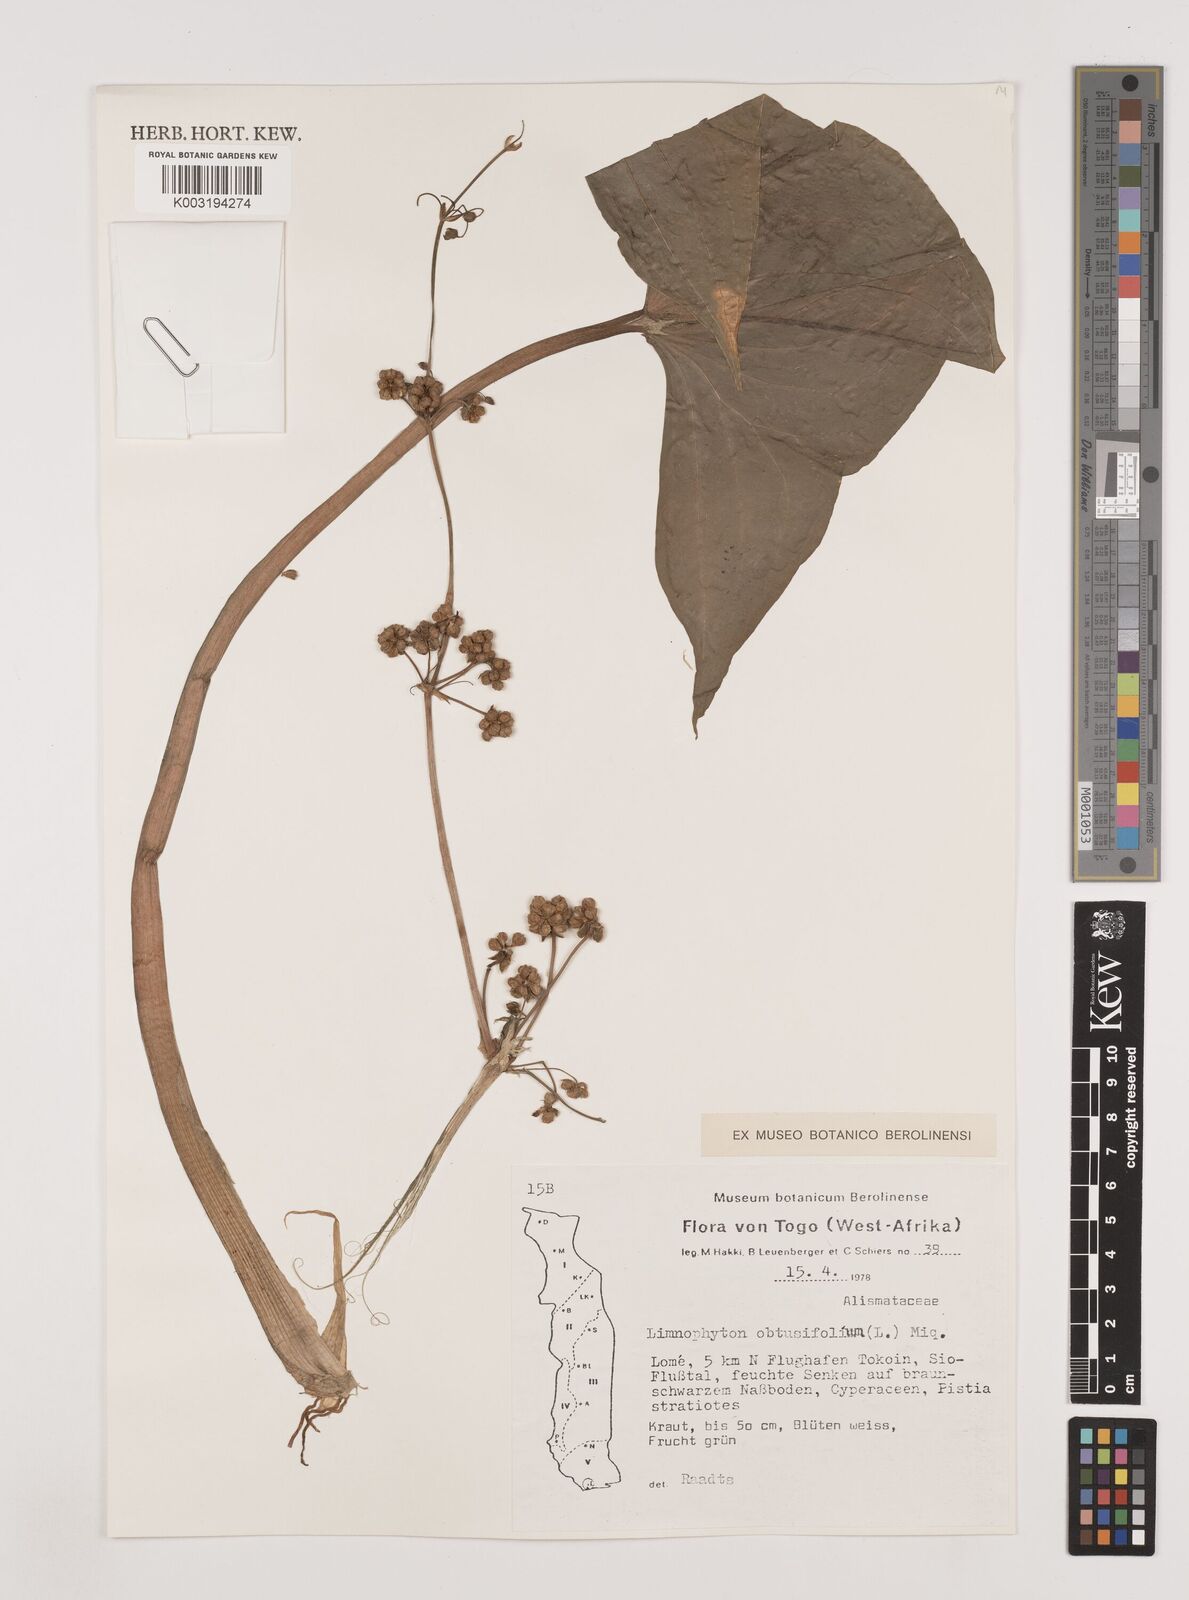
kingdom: Plantae
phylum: Tracheophyta
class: Liliopsida
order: Alismatales
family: Alismataceae
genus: Limnophyton
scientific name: Limnophyton obtusifolium
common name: Arrow head
